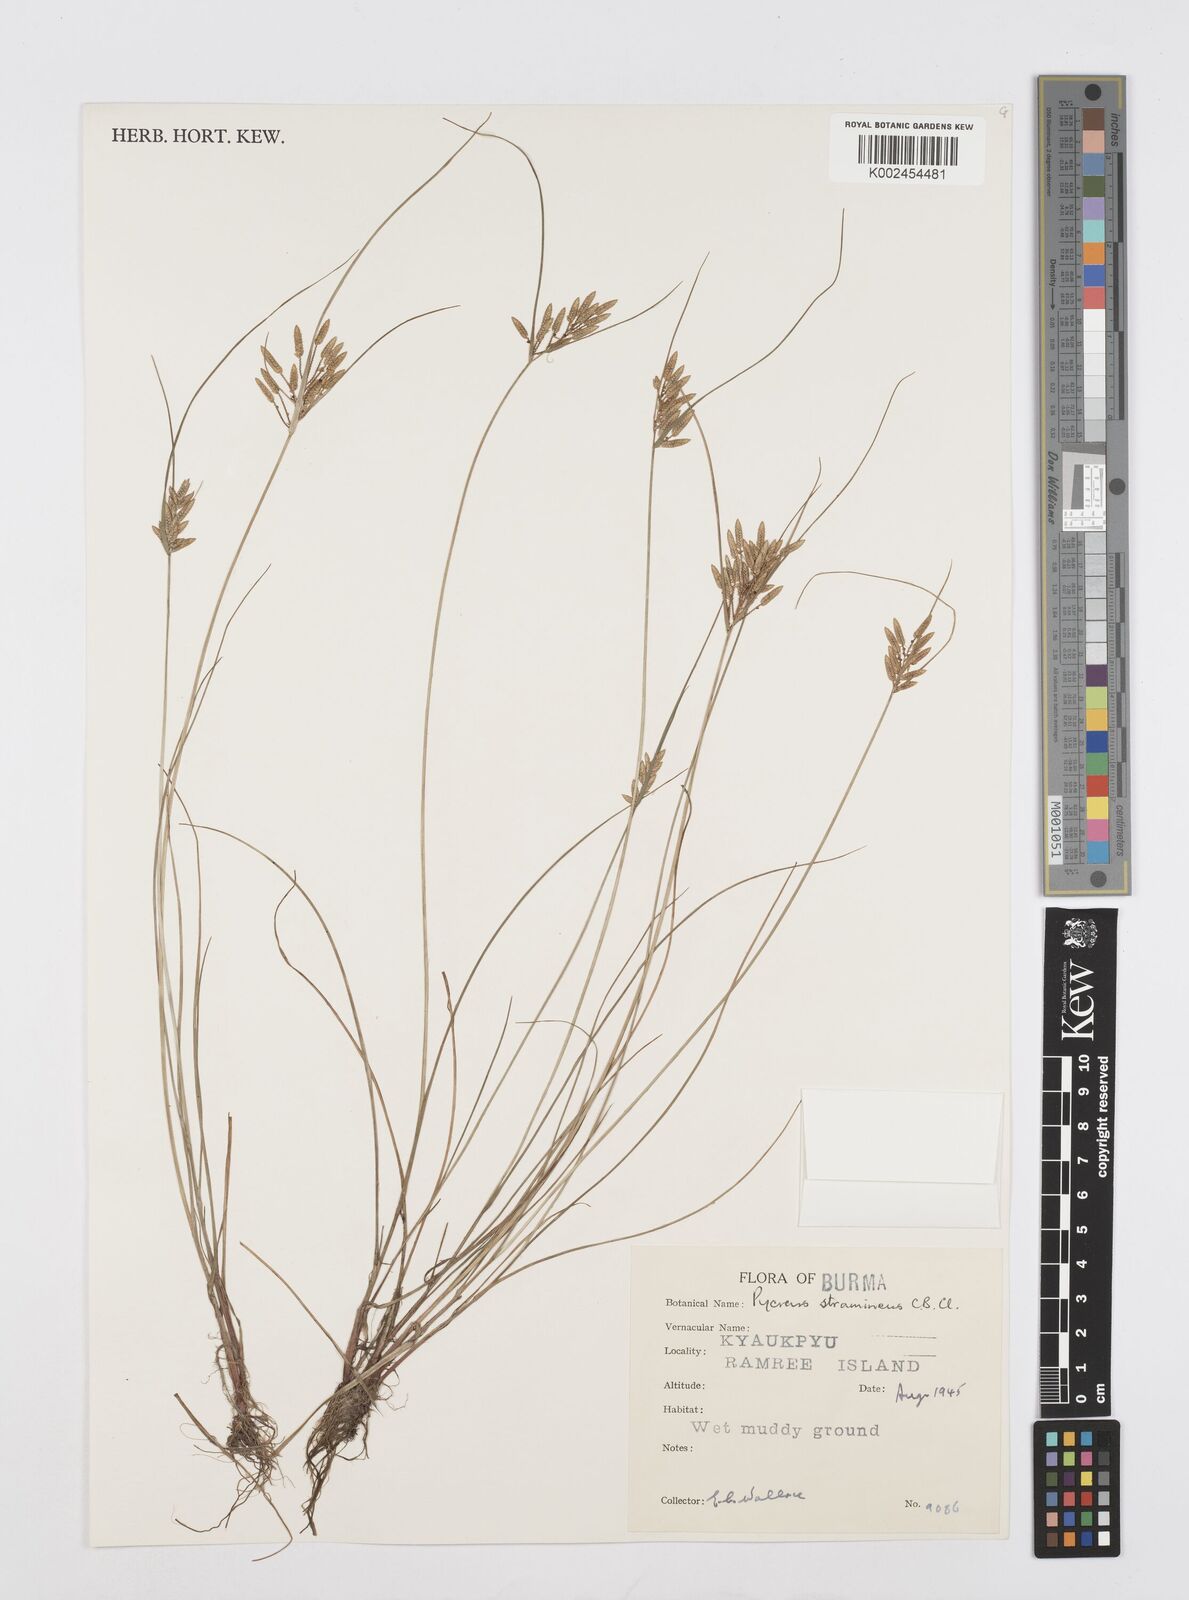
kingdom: Plantae
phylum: Tracheophyta
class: Liliopsida
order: Poales
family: Cyperaceae
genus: Cyperus
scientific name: Cyperus substramineus
